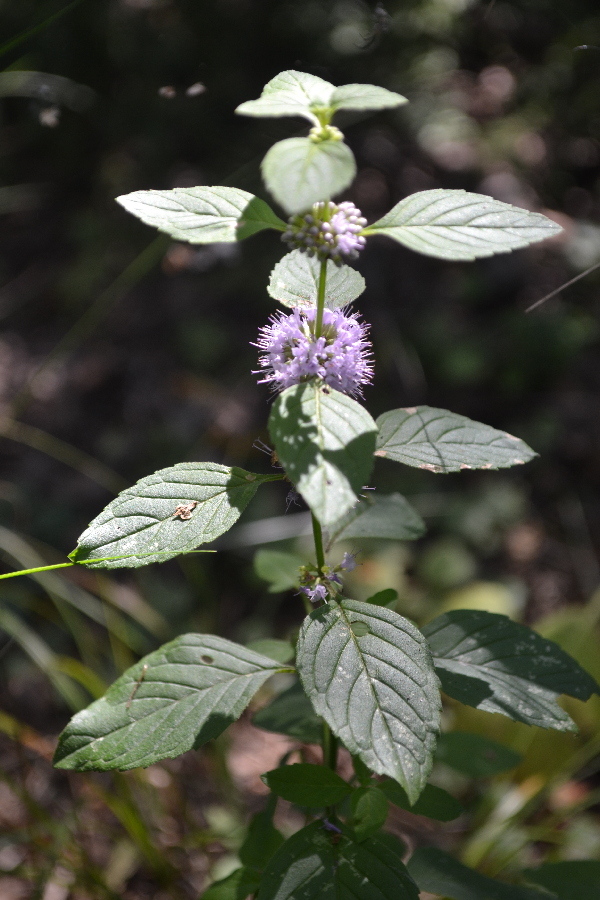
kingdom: Plantae
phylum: Tracheophyta
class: Magnoliopsida
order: Lamiales
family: Lamiaceae
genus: Mentha
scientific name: Mentha arvensis
